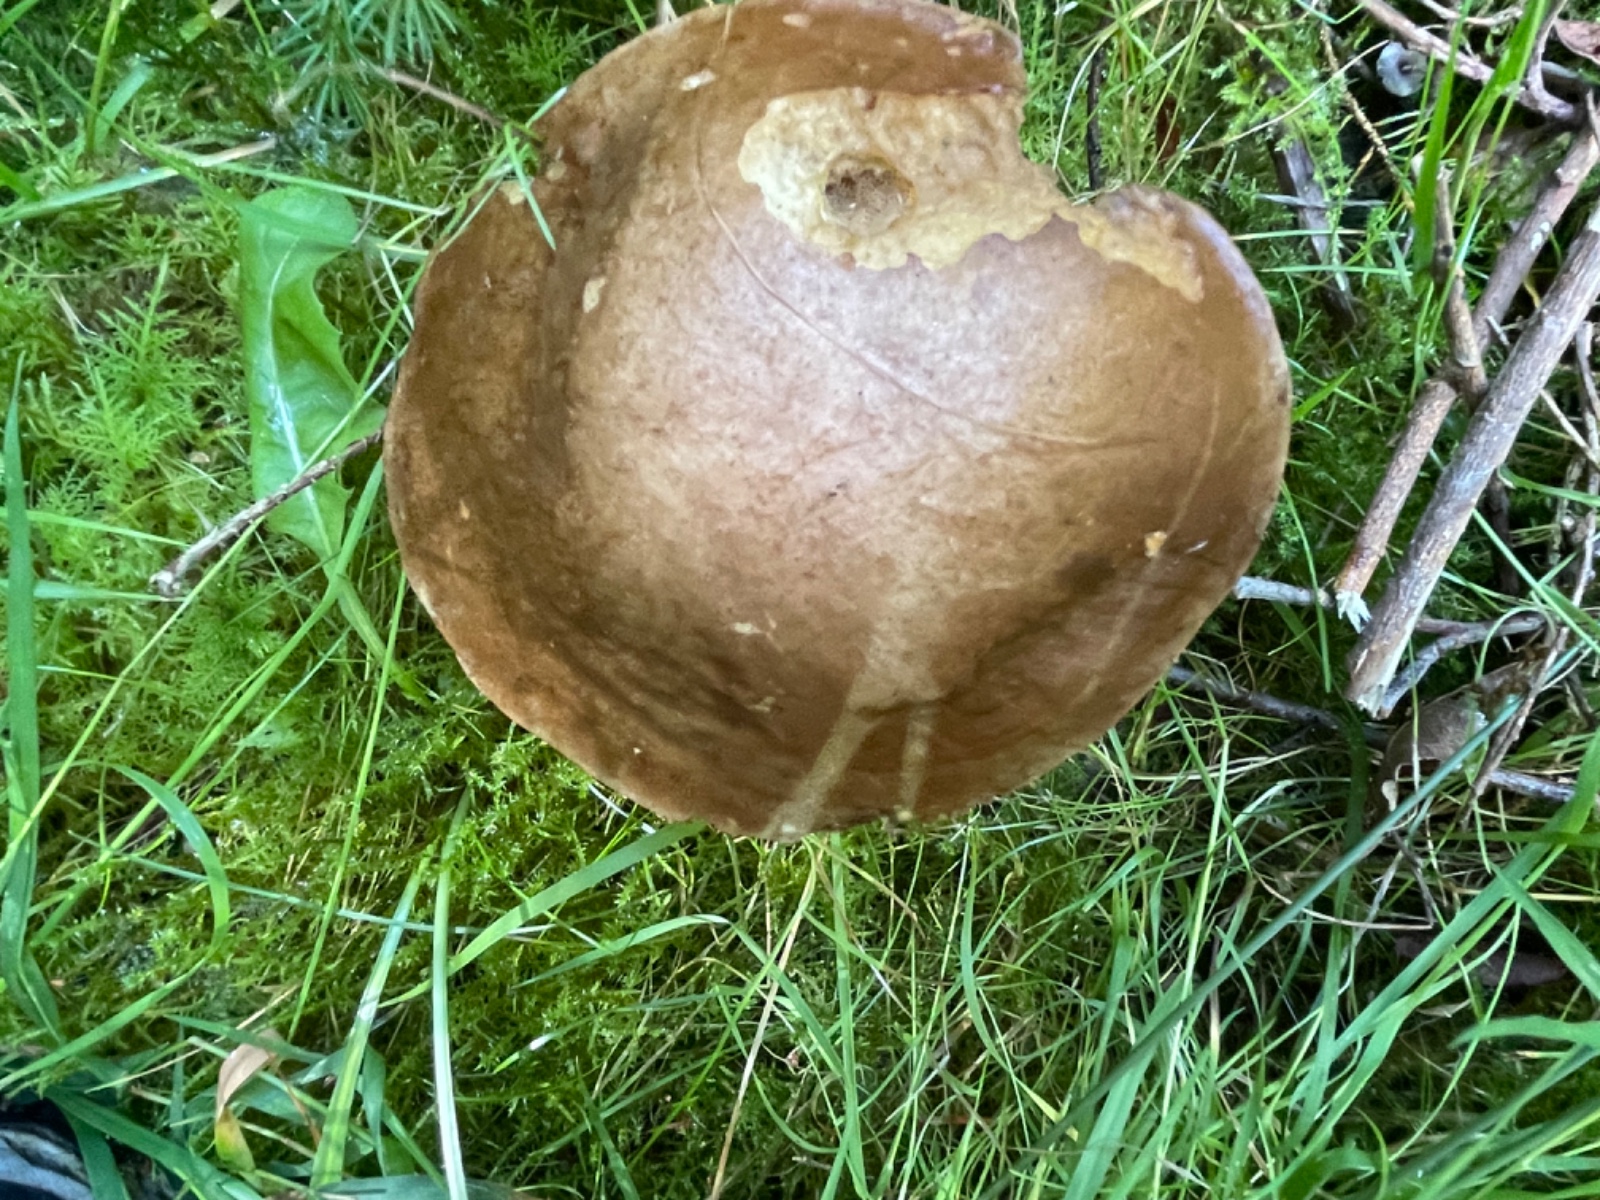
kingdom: Fungi
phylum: Basidiomycota
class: Agaricomycetes
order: Boletales
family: Boletaceae
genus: Leccinum
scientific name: Leccinum scabrum
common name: brun skælrørhat
